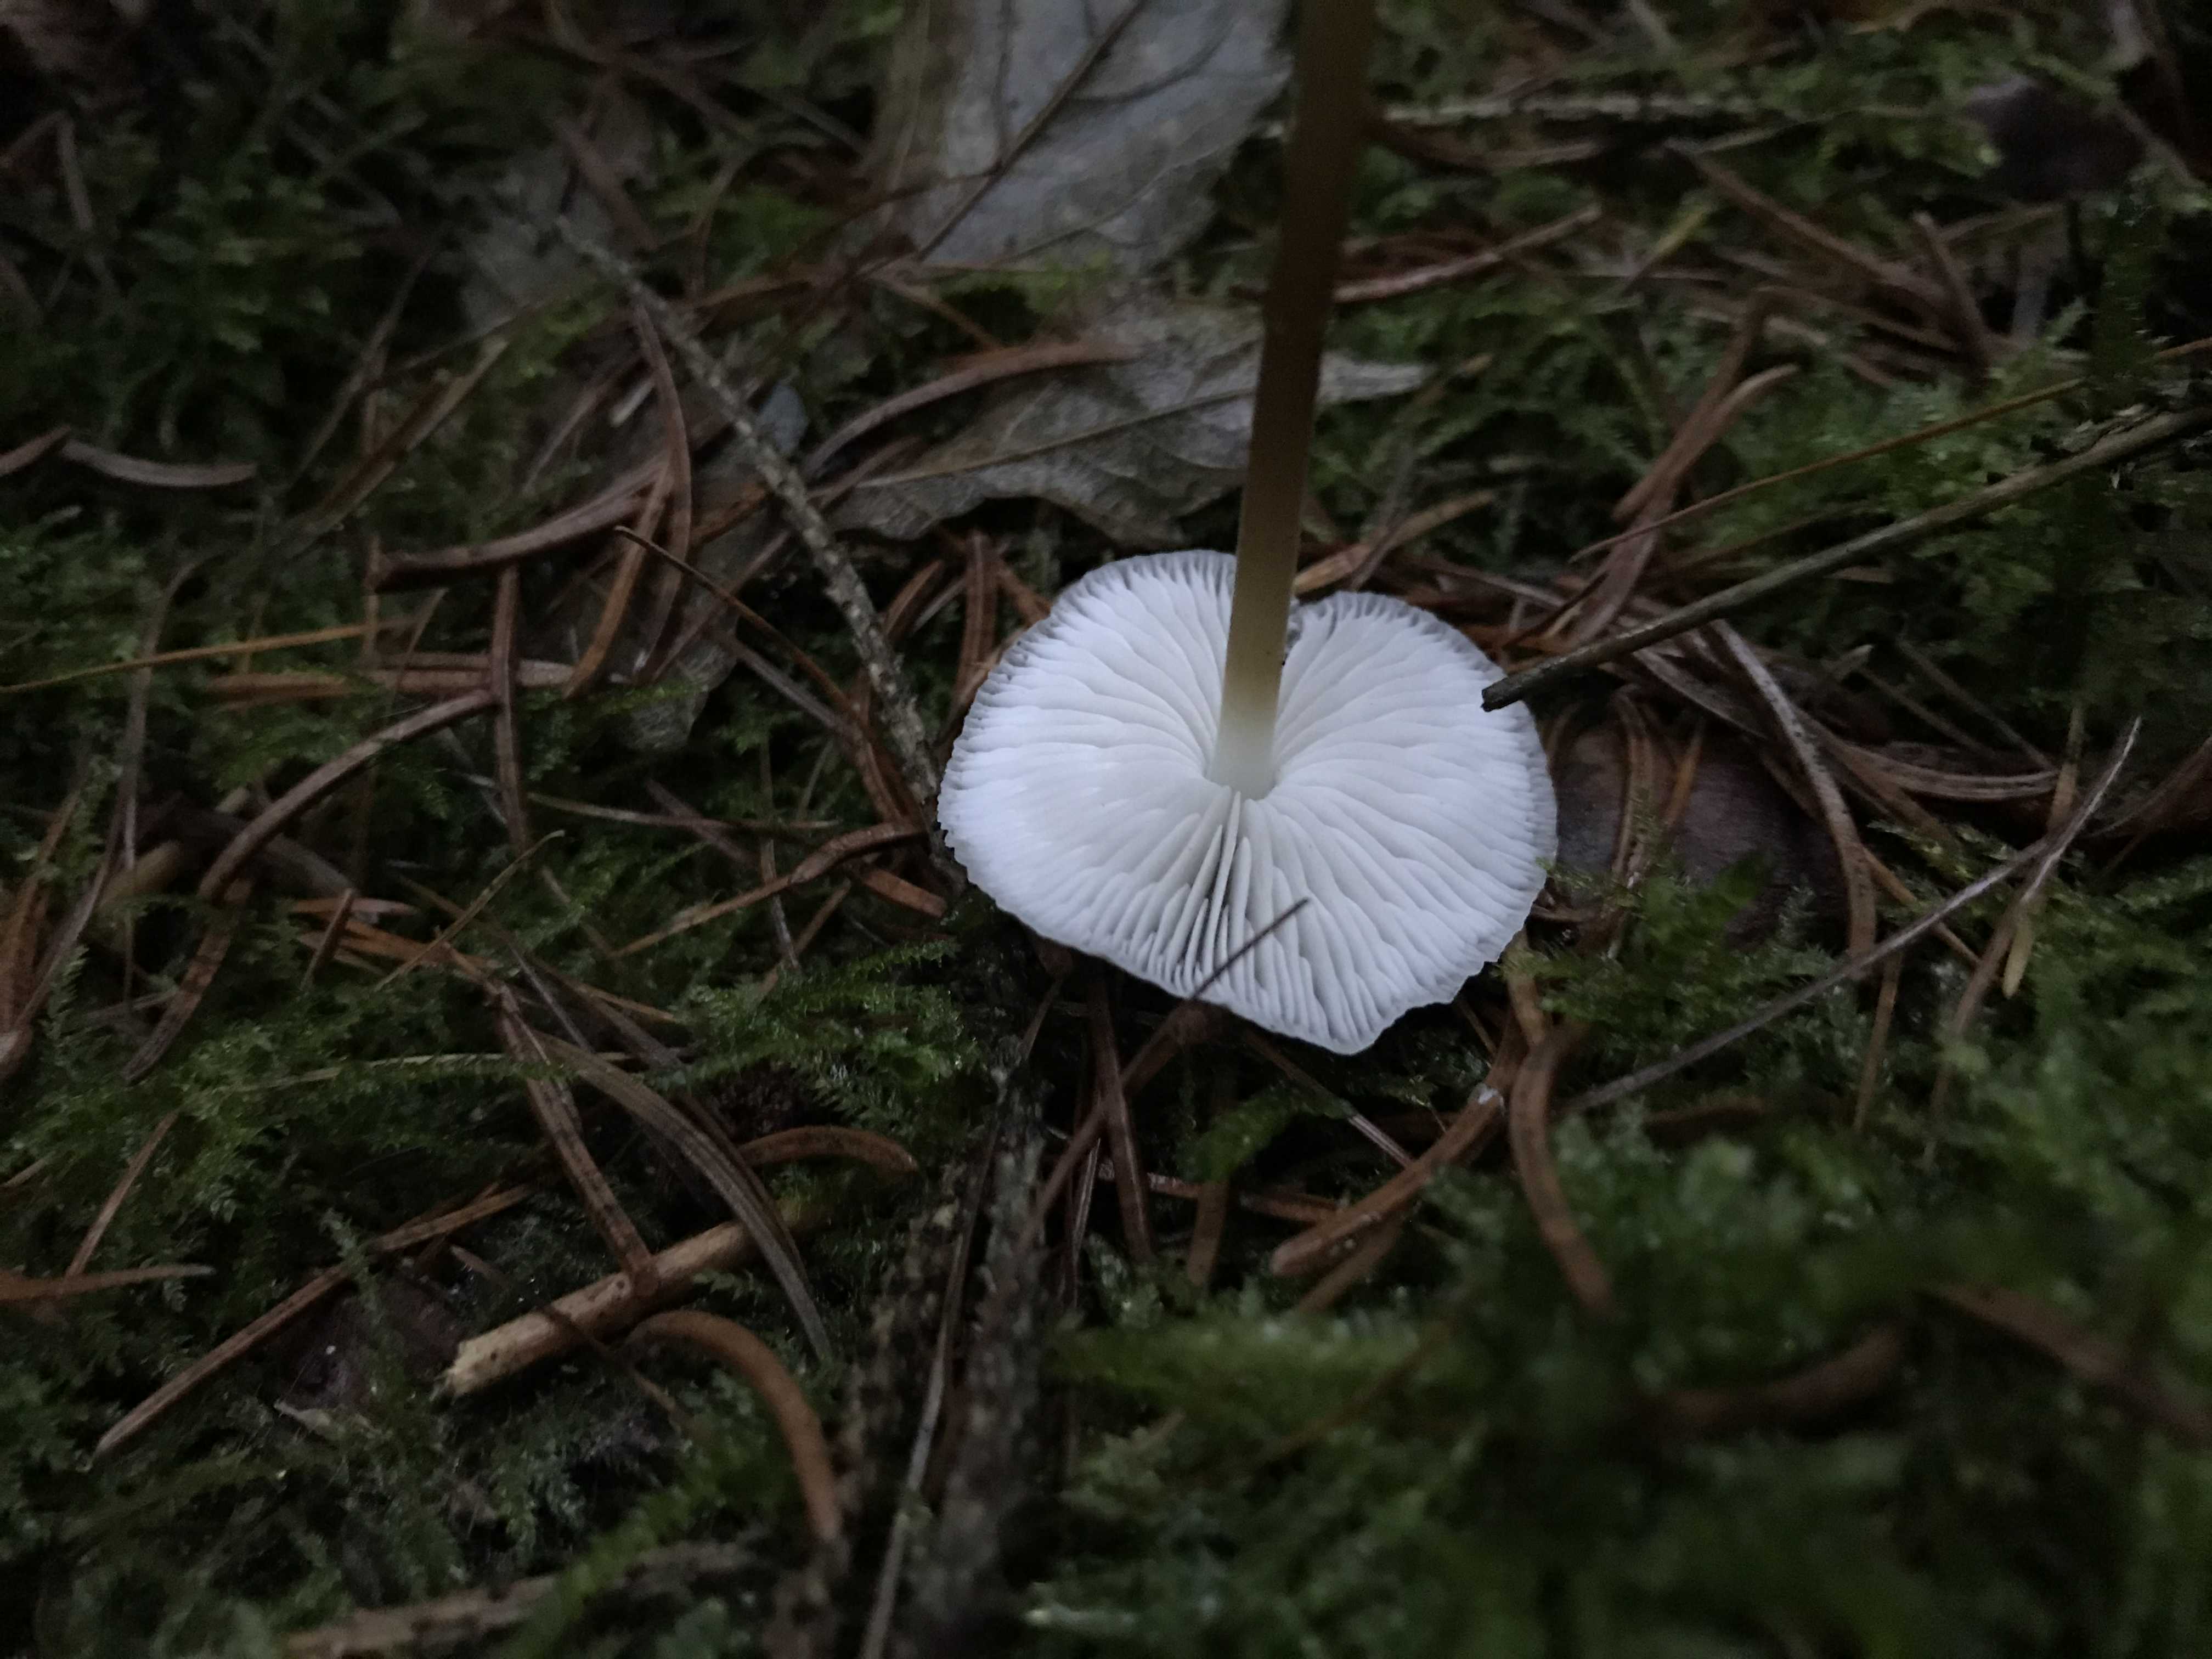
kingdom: Fungi
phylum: Basidiomycota
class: Agaricomycetes
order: Agaricales
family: Physalacriaceae
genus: Strobilurus
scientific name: Strobilurus esculentus
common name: gran-koglehat
